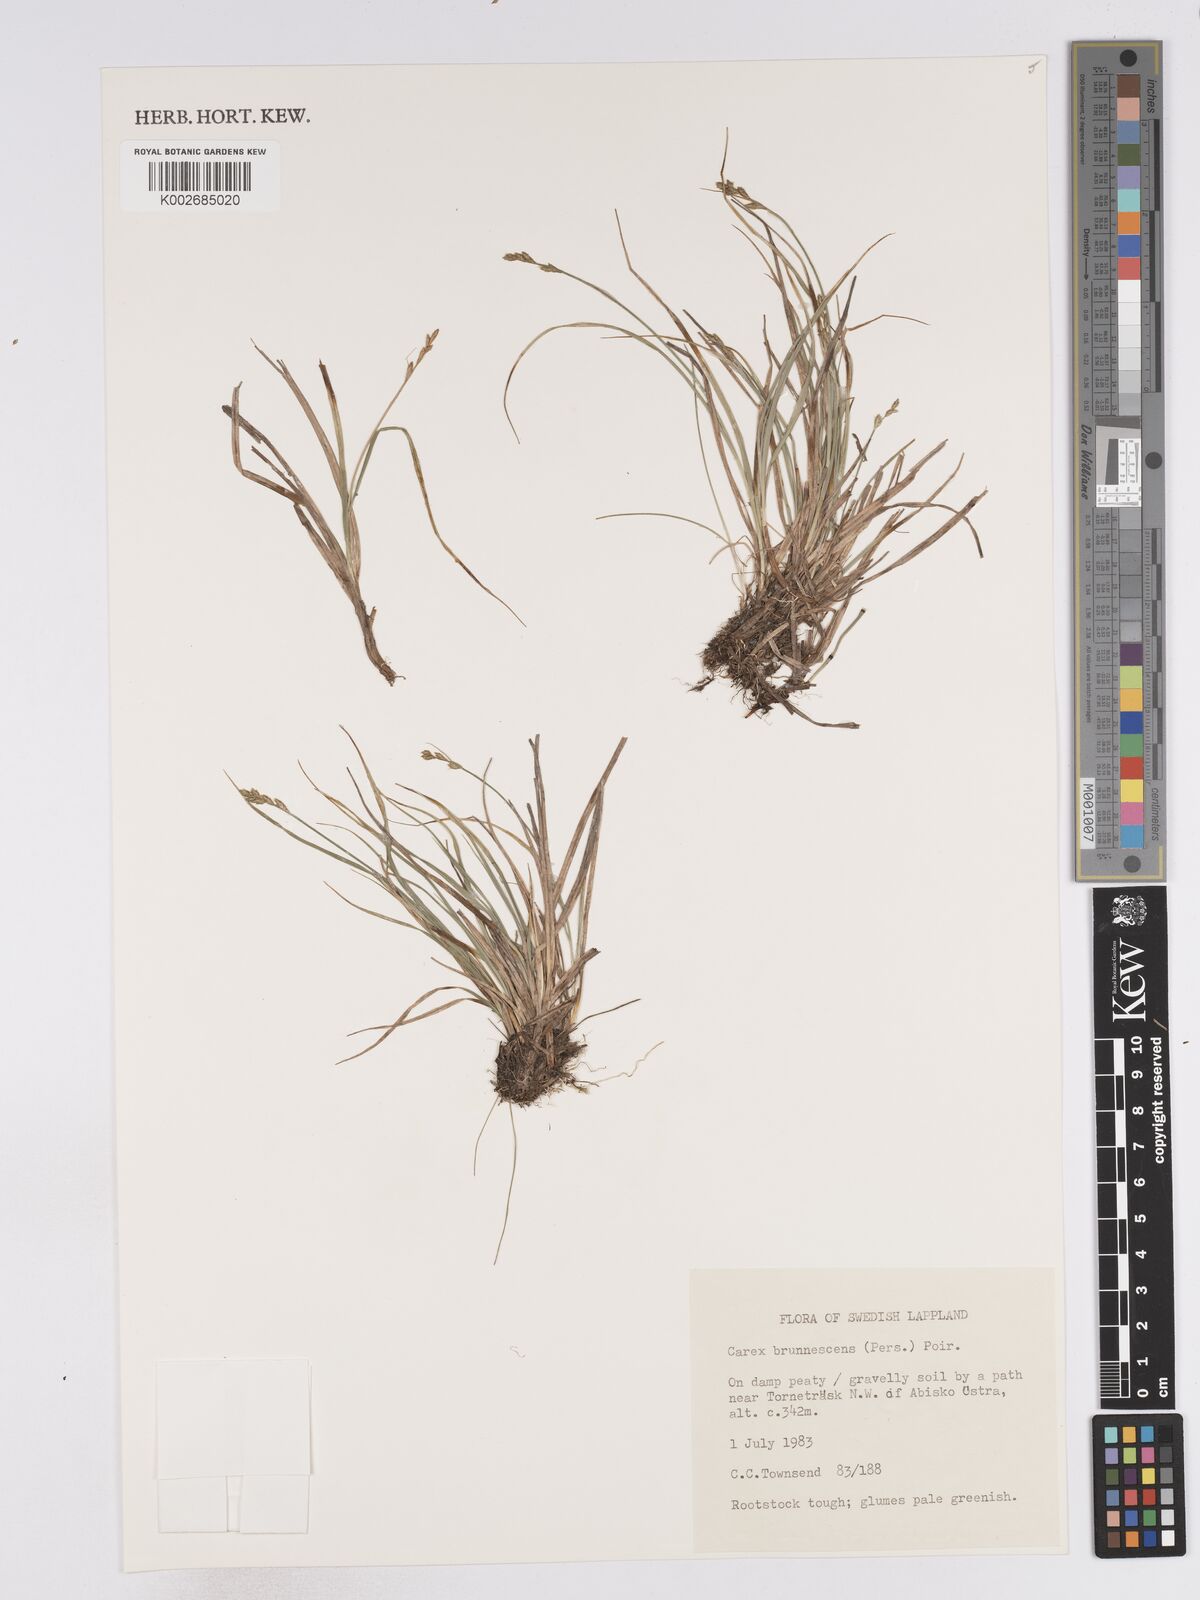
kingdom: Plantae
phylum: Tracheophyta
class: Liliopsida
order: Poales
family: Cyperaceae
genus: Carex
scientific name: Carex brunnescens
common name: Brown sedge
